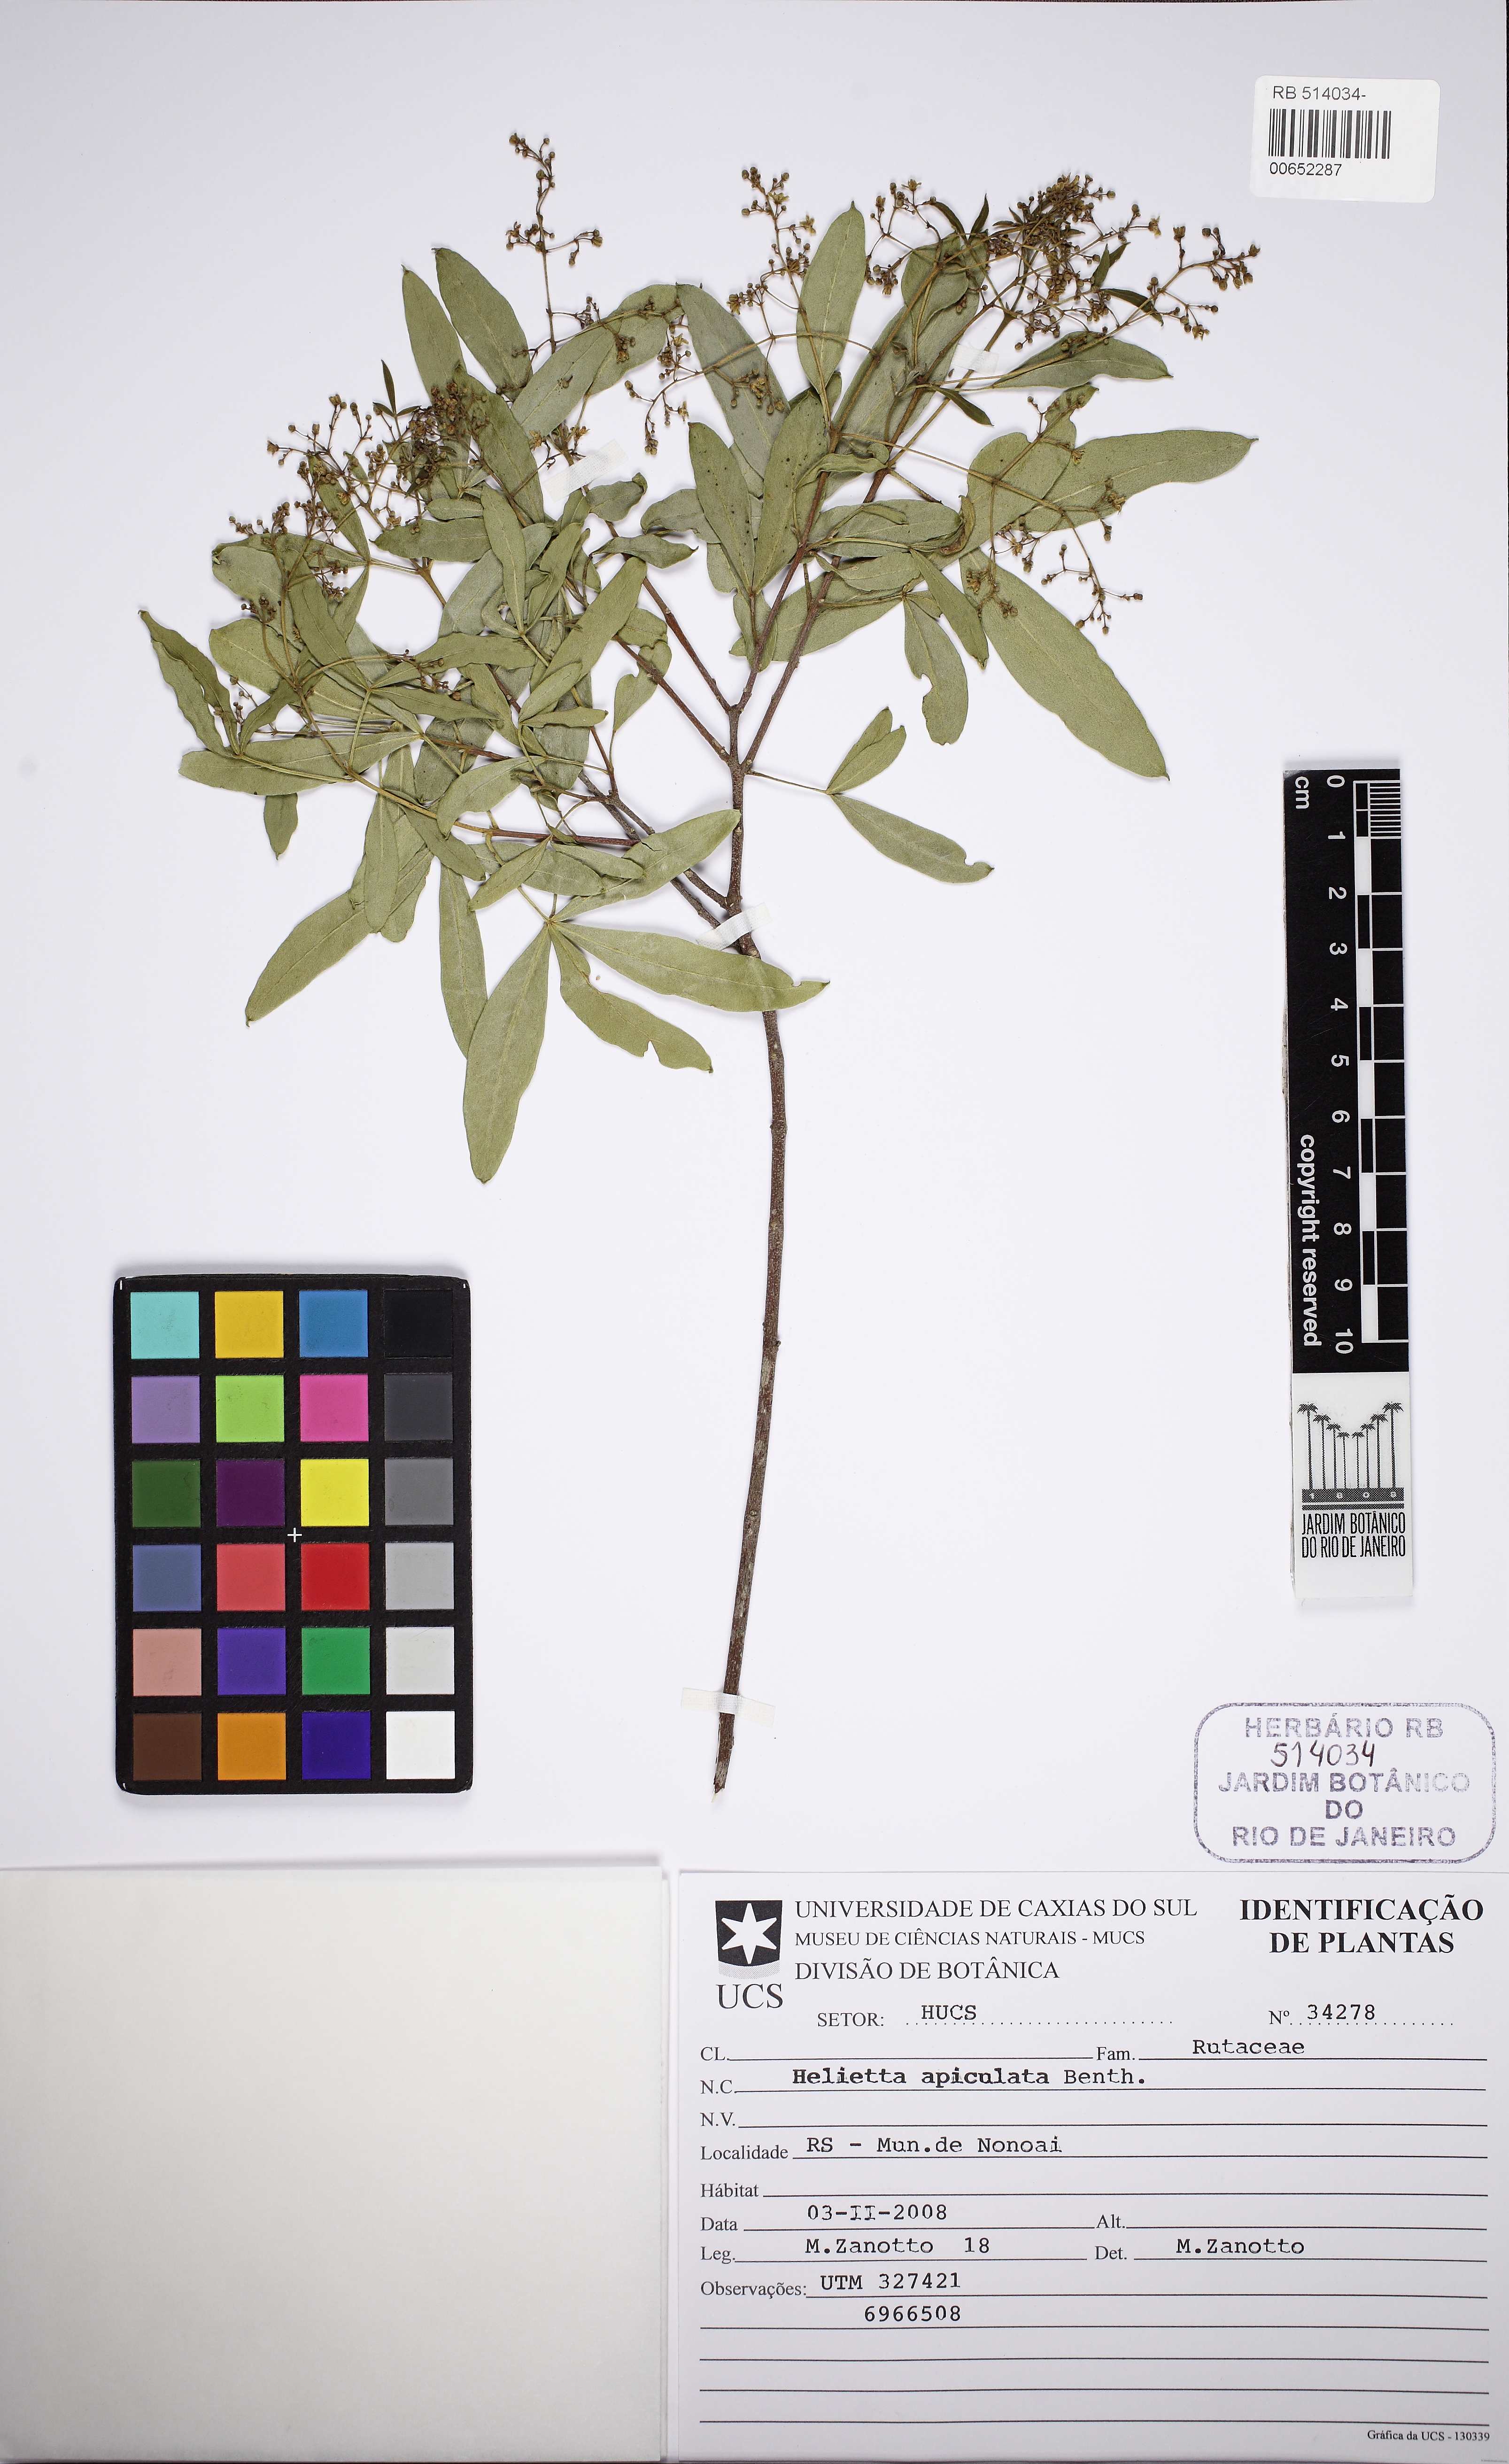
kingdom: Plantae
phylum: Tracheophyta
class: Magnoliopsida
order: Sapindales
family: Rutaceae
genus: Helietta
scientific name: Helietta apiculata
